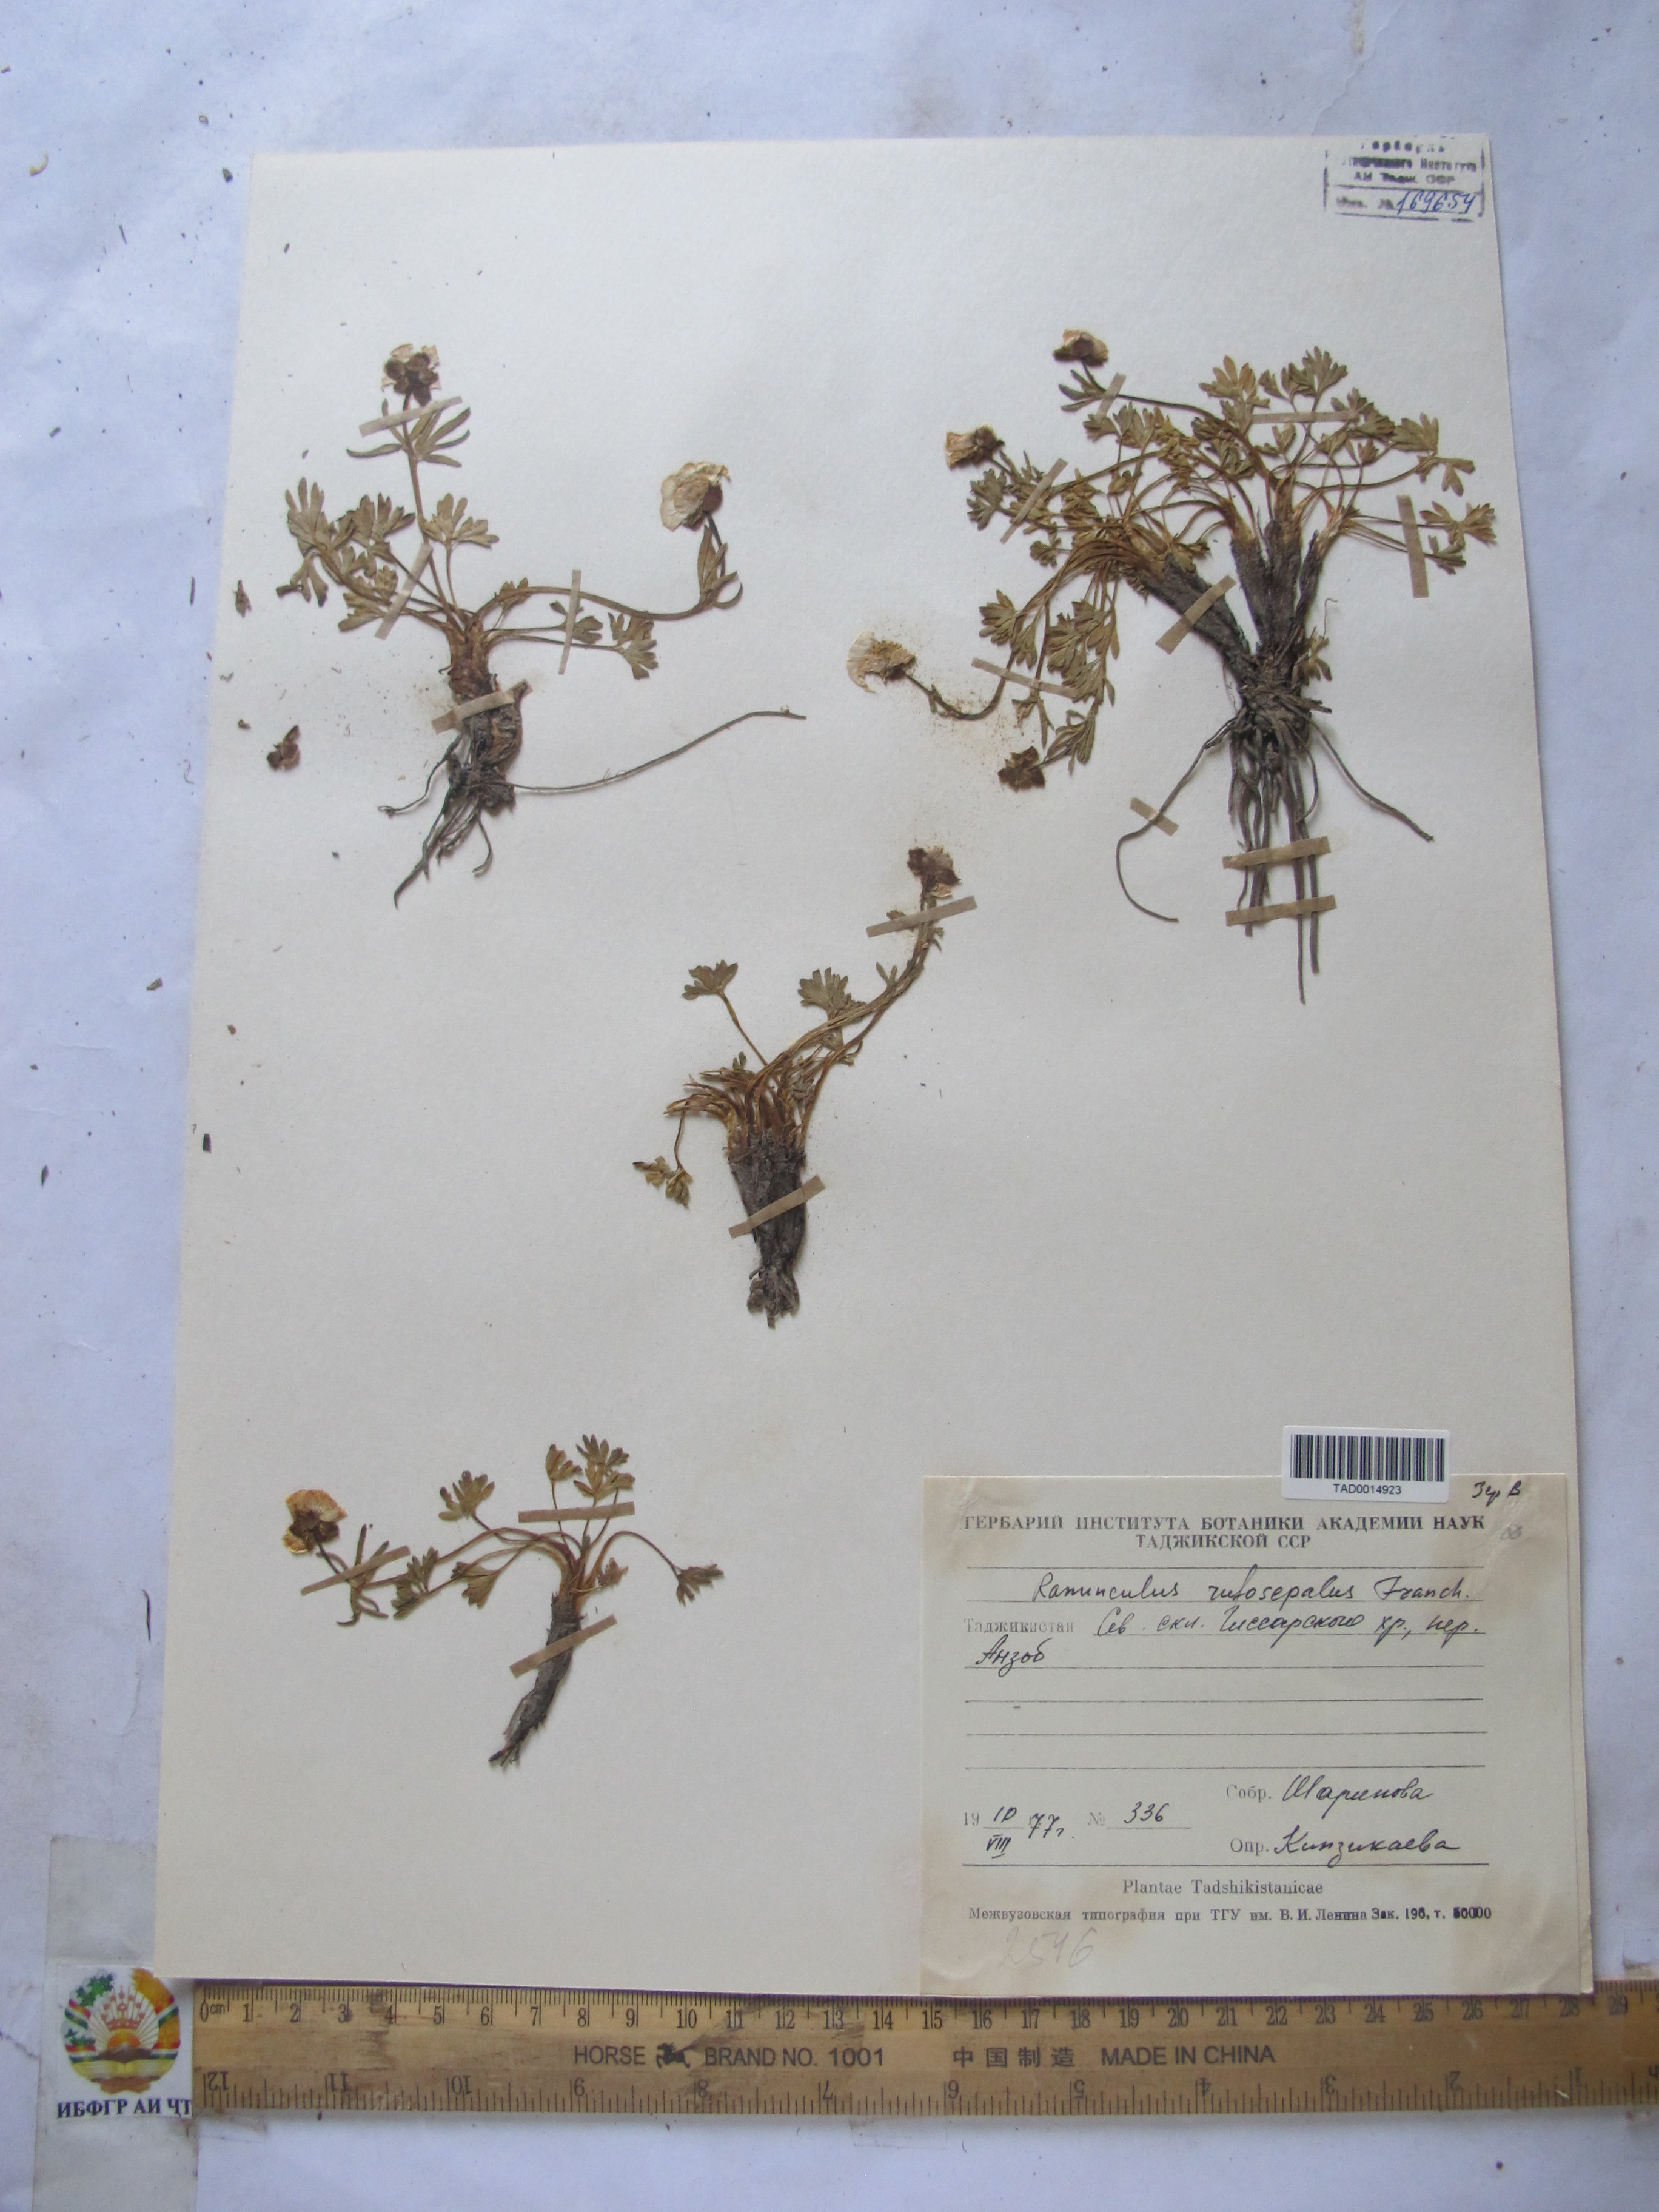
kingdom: Plantae
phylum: Tracheophyta
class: Magnoliopsida
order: Ranunculales
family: Ranunculaceae
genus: Ranunculus
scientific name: Ranunculus rufosepalus
